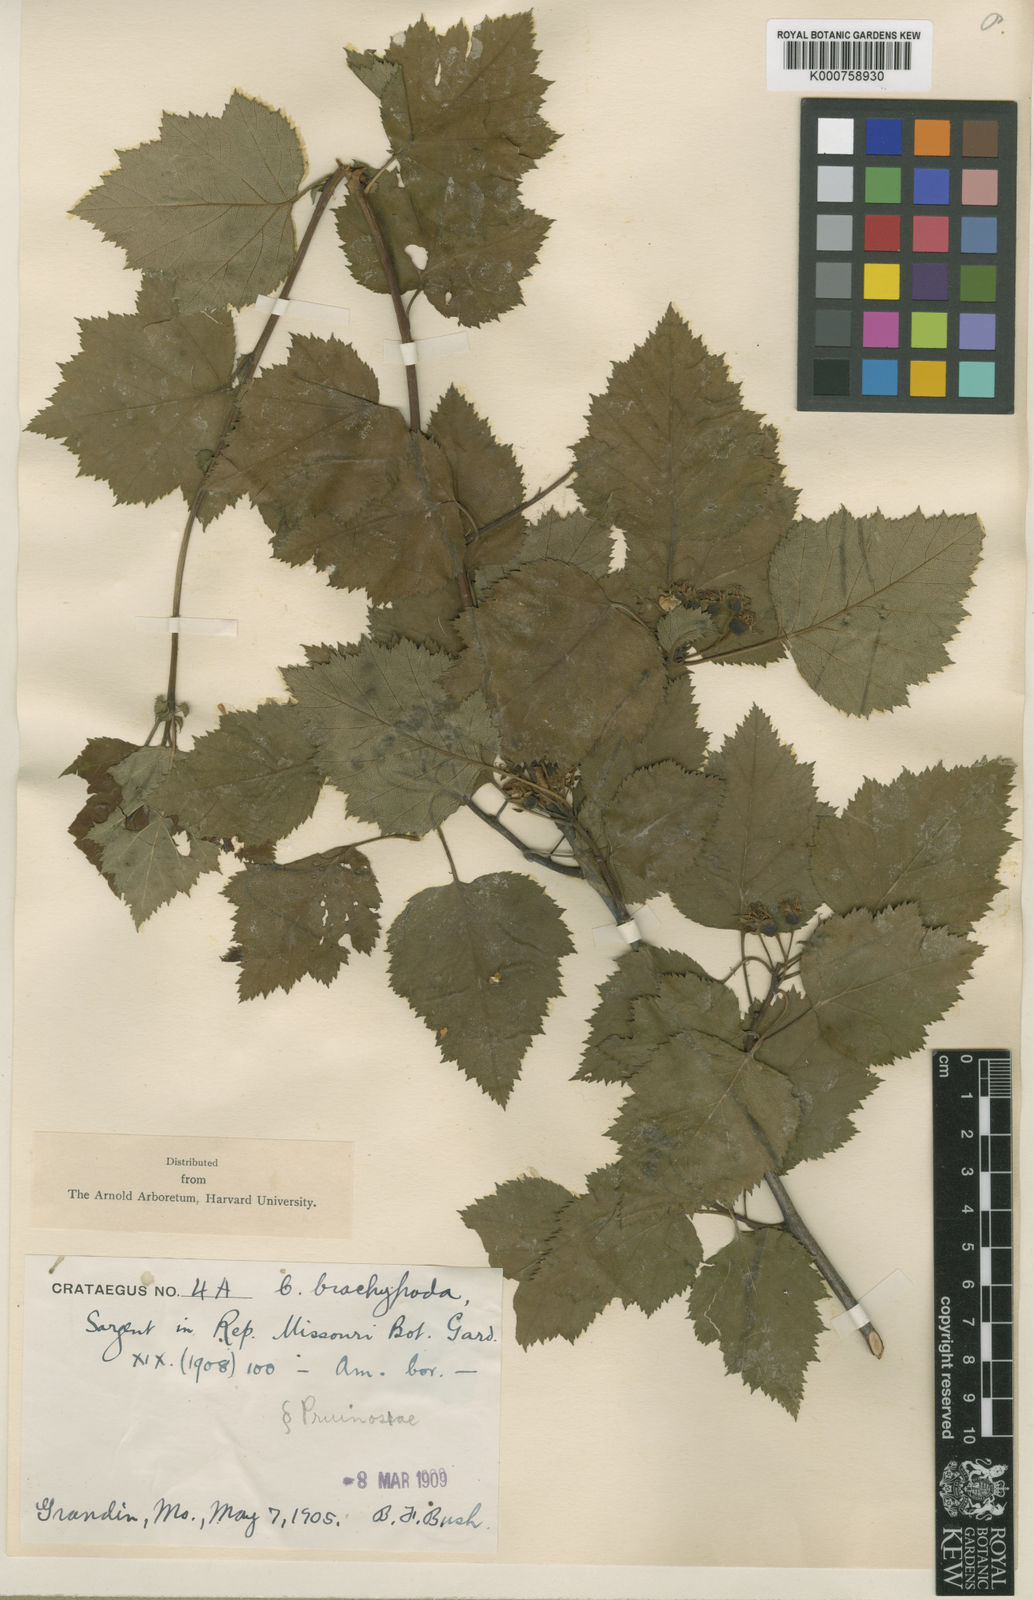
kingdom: Plantae
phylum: Tracheophyta
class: Magnoliopsida
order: Rosales
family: Rosaceae
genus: Crataegus
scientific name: Crataegus pruinosa
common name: Waxy-fruit hawthorn
